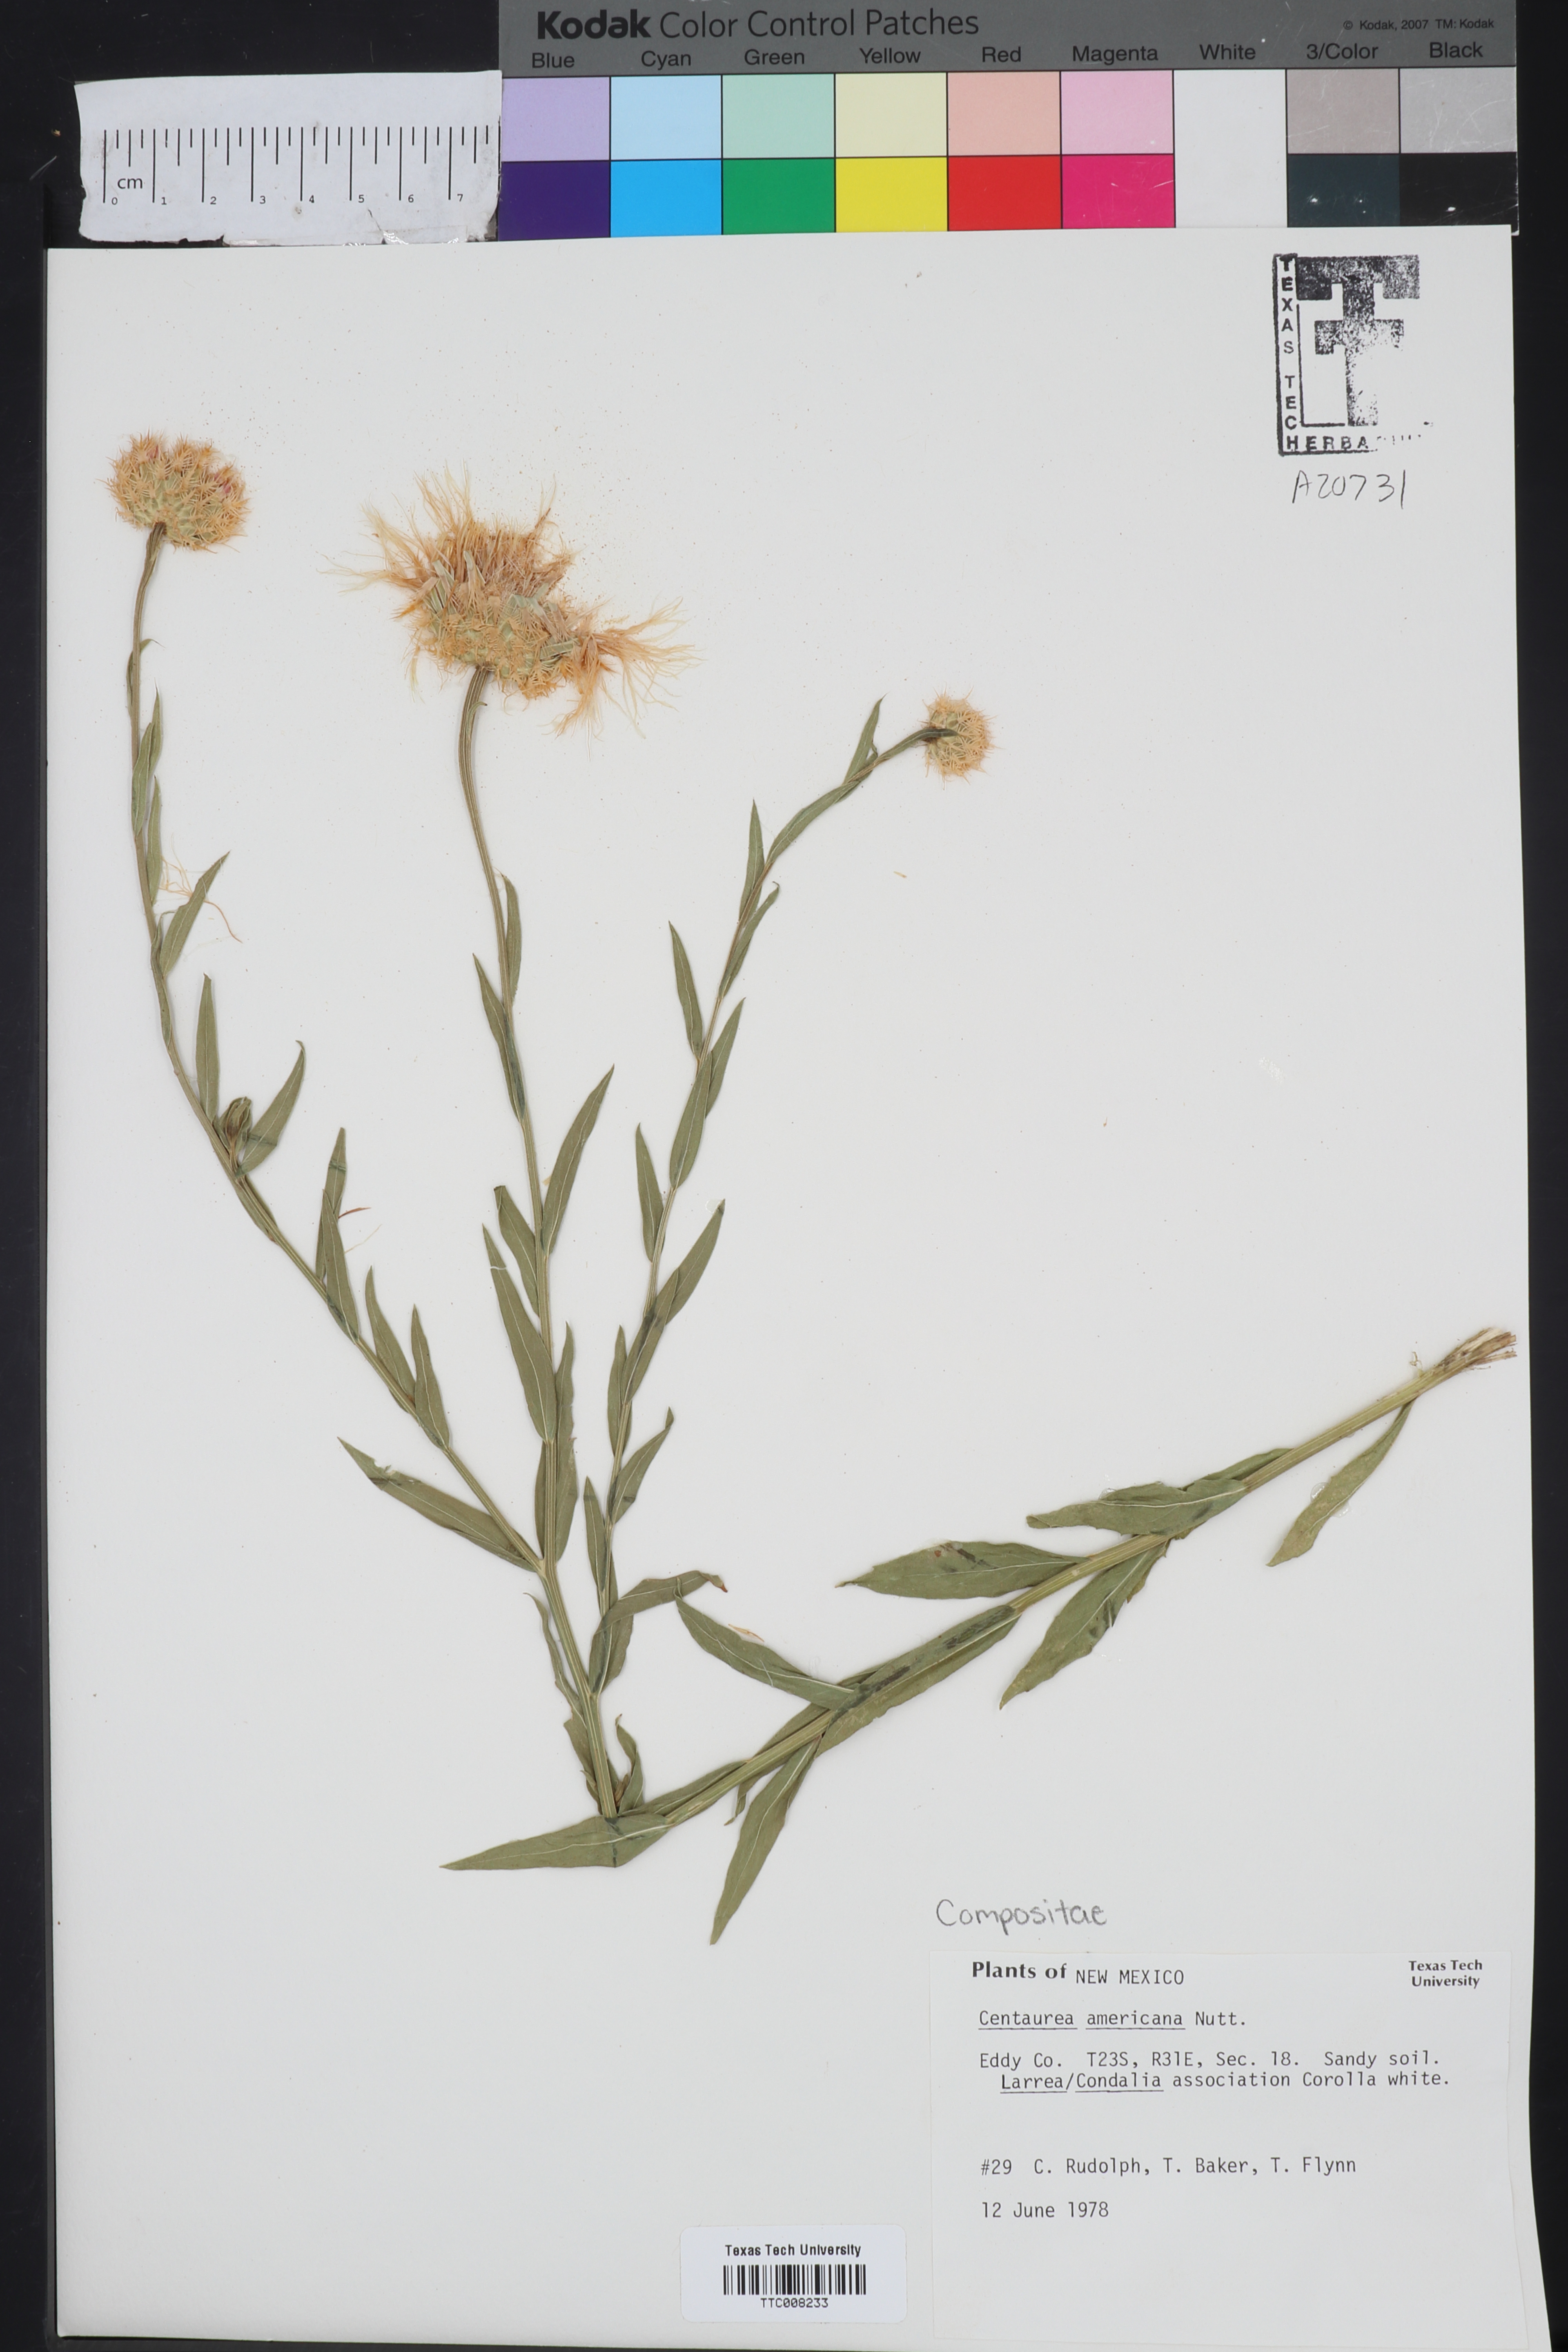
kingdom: Plantae
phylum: Tracheophyta
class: Magnoliopsida
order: Asterales
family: Asteraceae
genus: Plectocephalus
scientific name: Plectocephalus americanus
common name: American basket-flower
